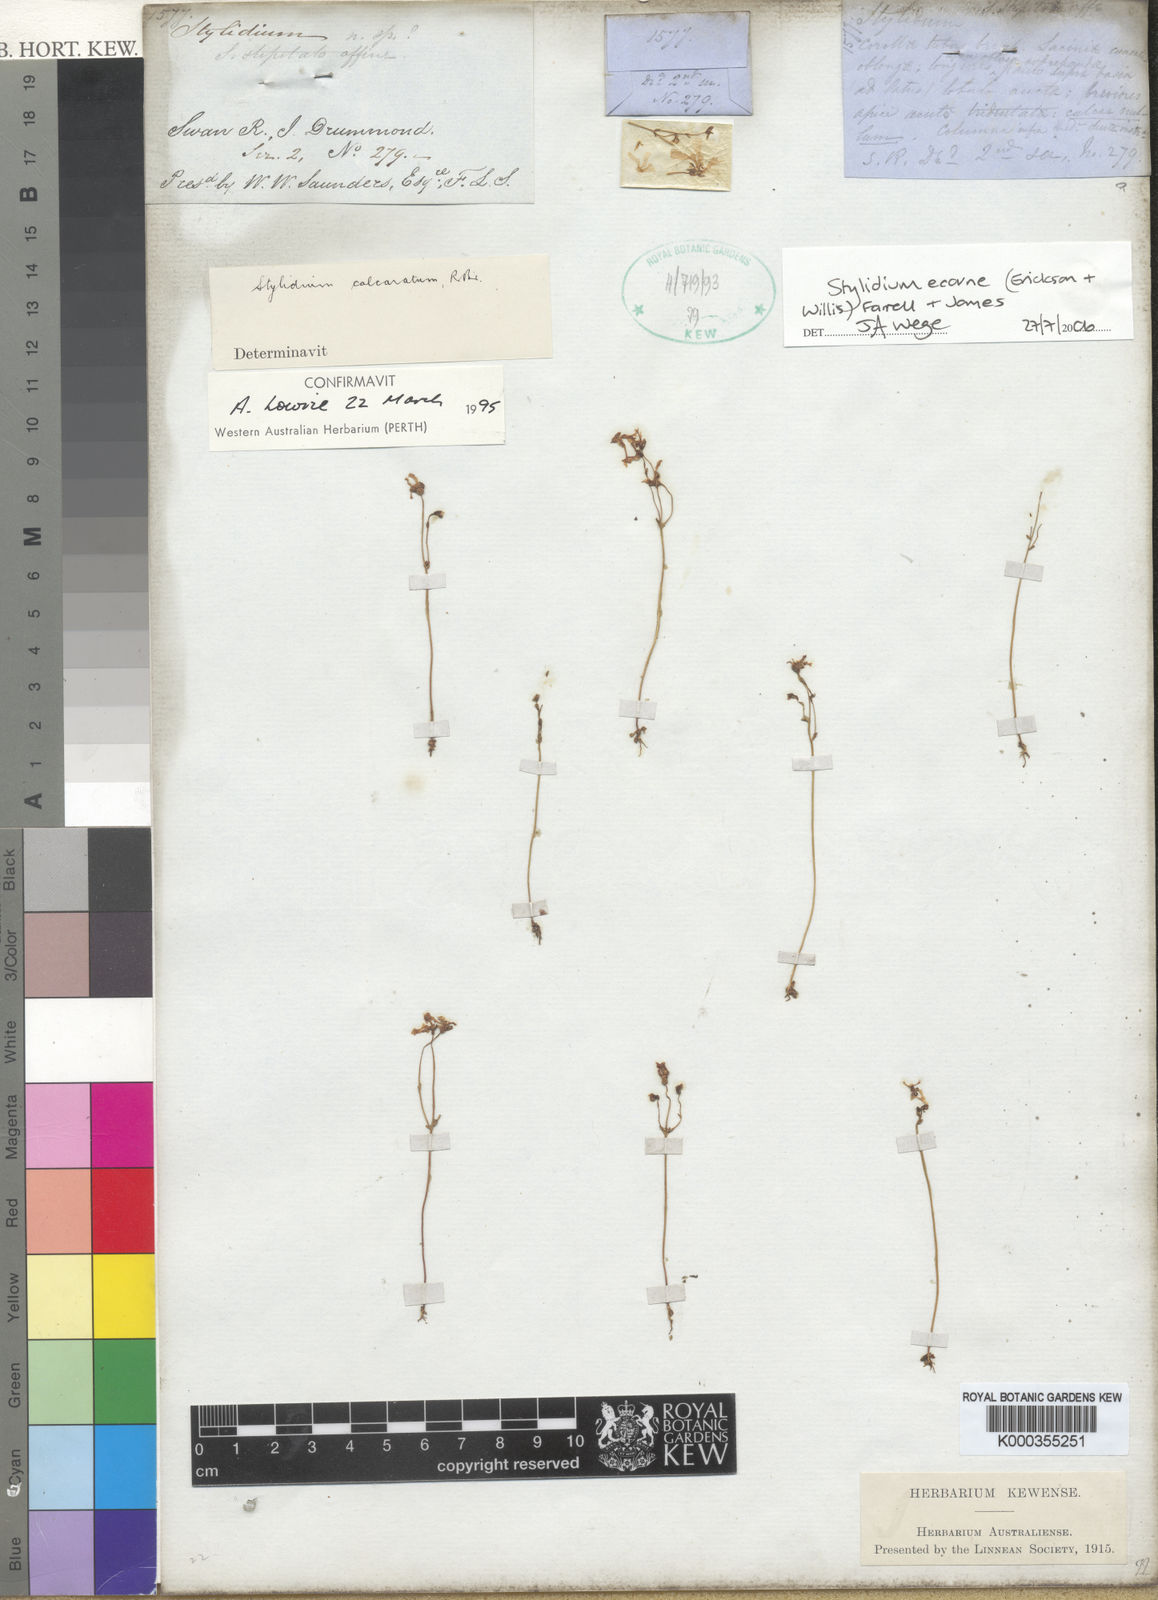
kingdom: Plantae
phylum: Tracheophyta
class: Magnoliopsida
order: Asterales
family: Stylidiaceae
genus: Stylidium
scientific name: Stylidium
